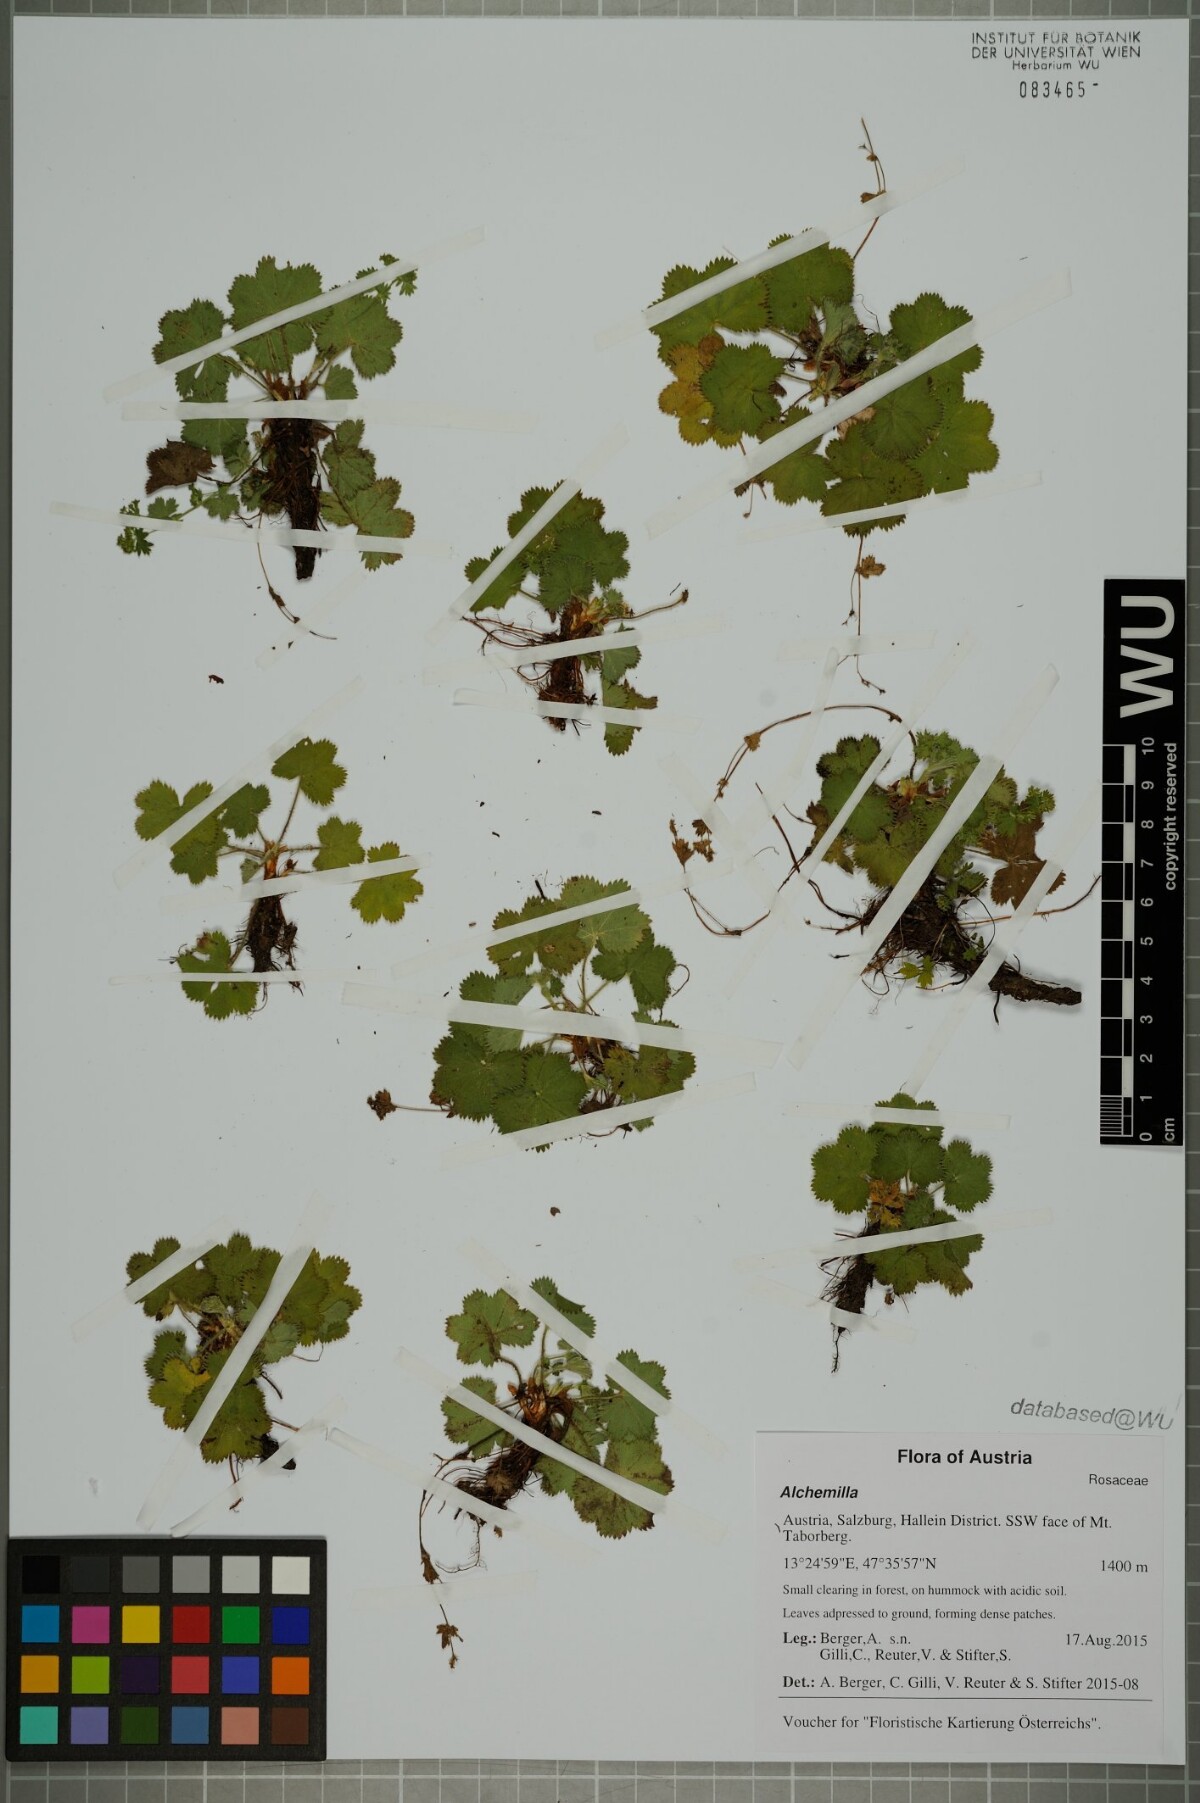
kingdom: Plantae
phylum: Tracheophyta
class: Magnoliopsida
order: Rosales
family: Rosaceae
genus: Alchemilla
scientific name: Alchemilla
